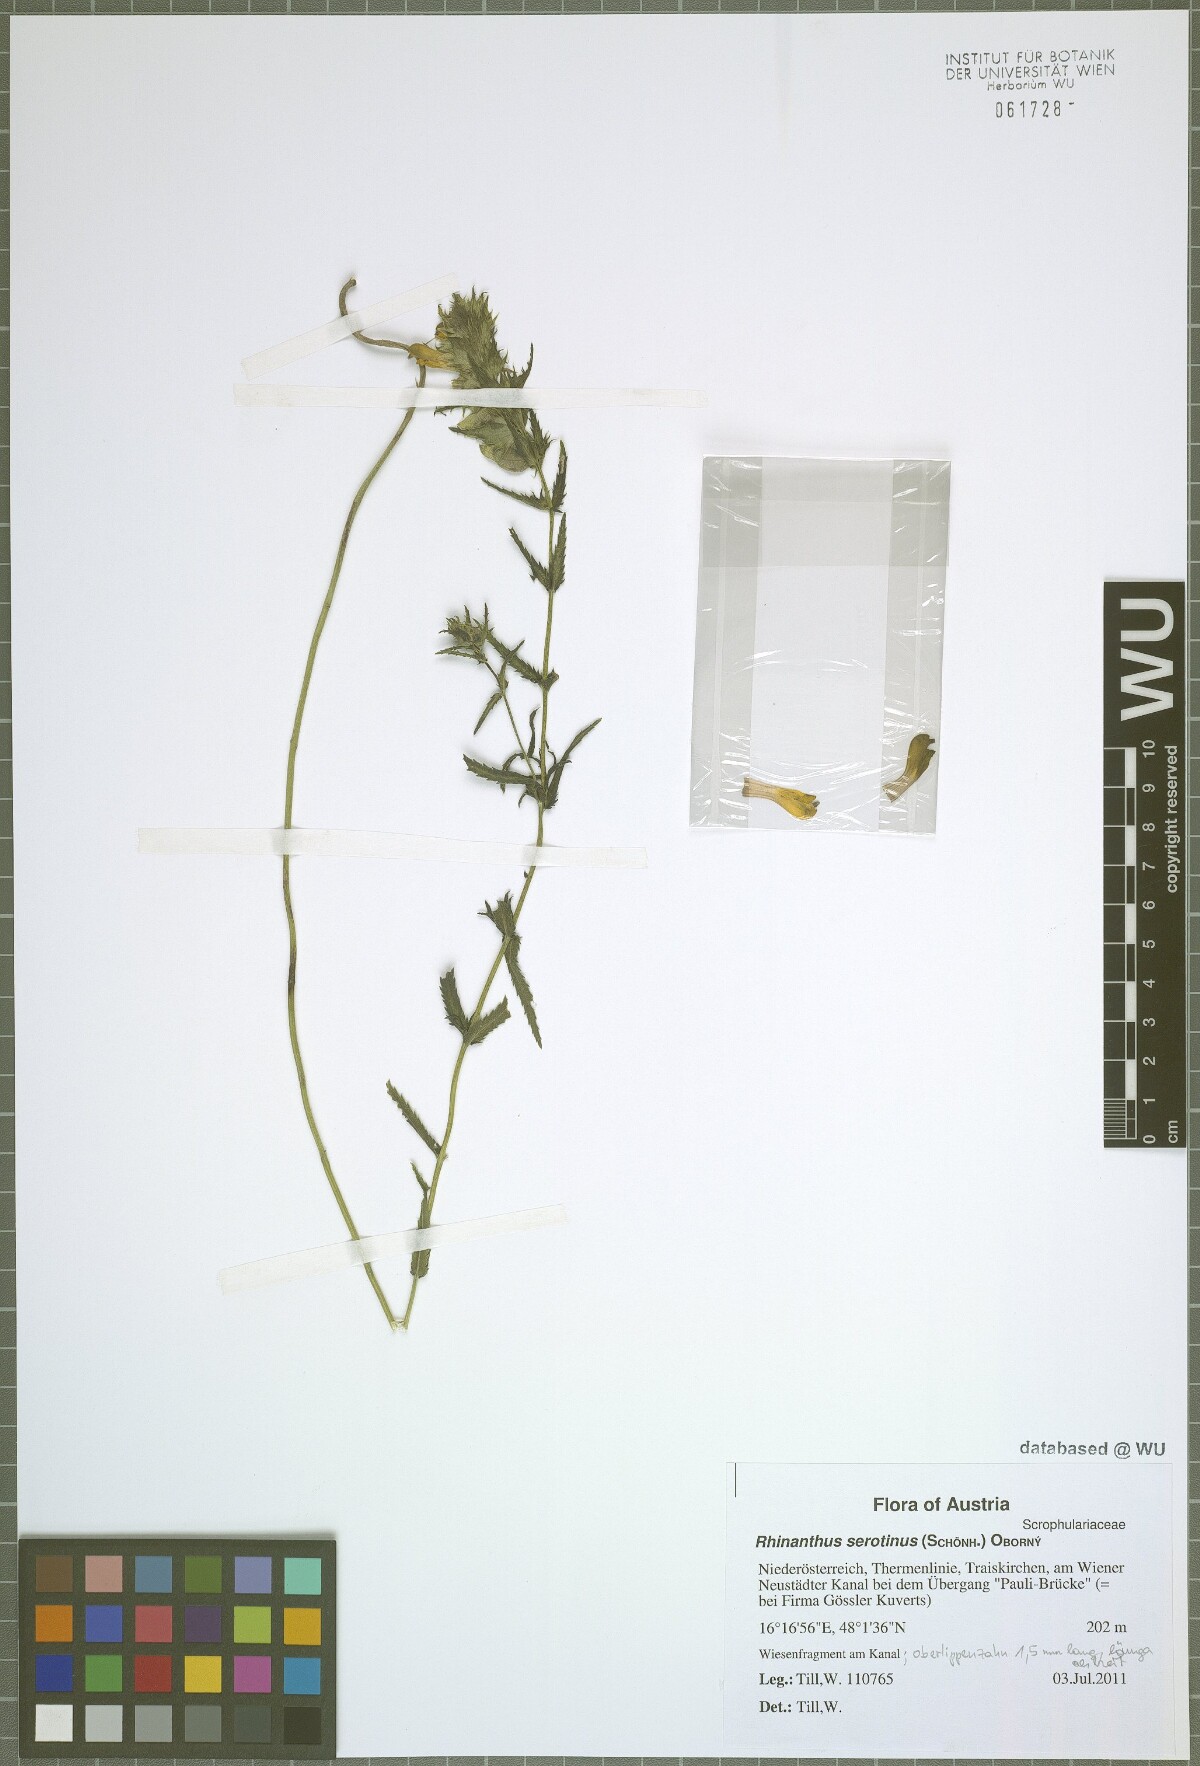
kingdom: Plantae
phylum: Tracheophyta
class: Magnoliopsida
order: Lamiales
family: Orobanchaceae
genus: Rhinanthus
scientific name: Rhinanthus serotinus
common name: Late-flowering yellow rattle
